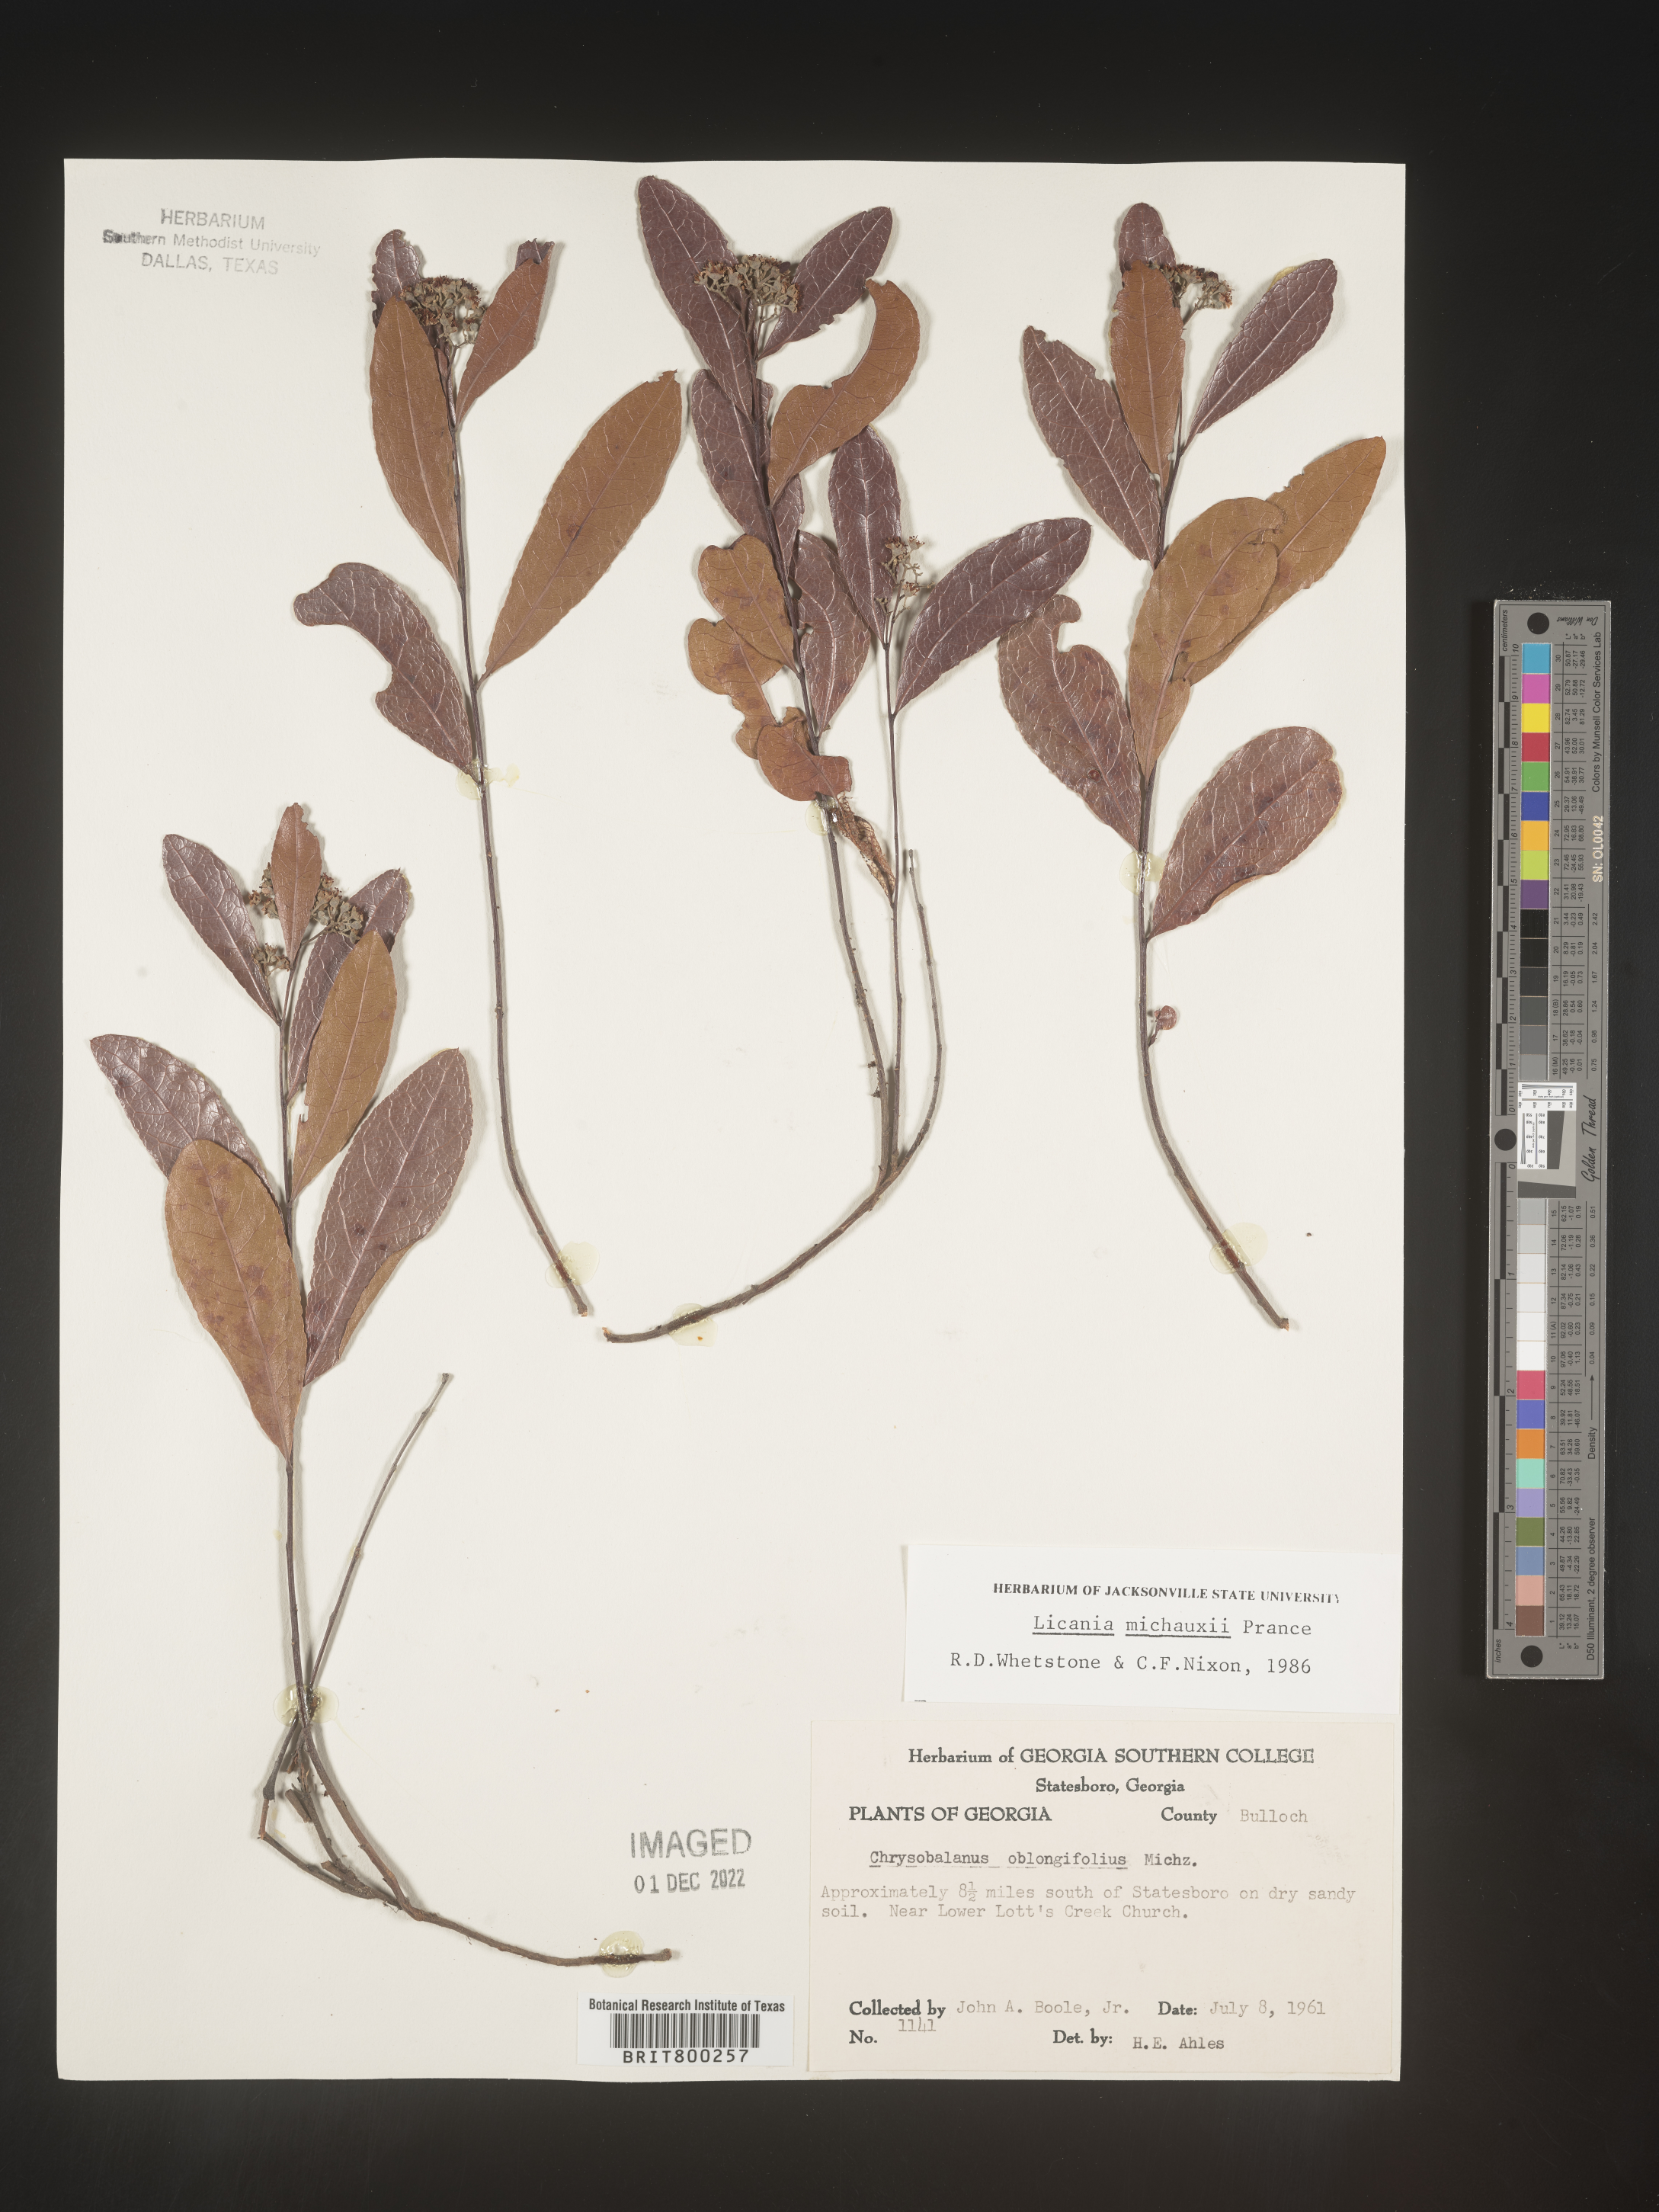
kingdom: Plantae
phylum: Tracheophyta
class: Magnoliopsida
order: Malpighiales
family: Chrysobalanaceae
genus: Geobalanus
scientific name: Geobalanus oblongifolius
